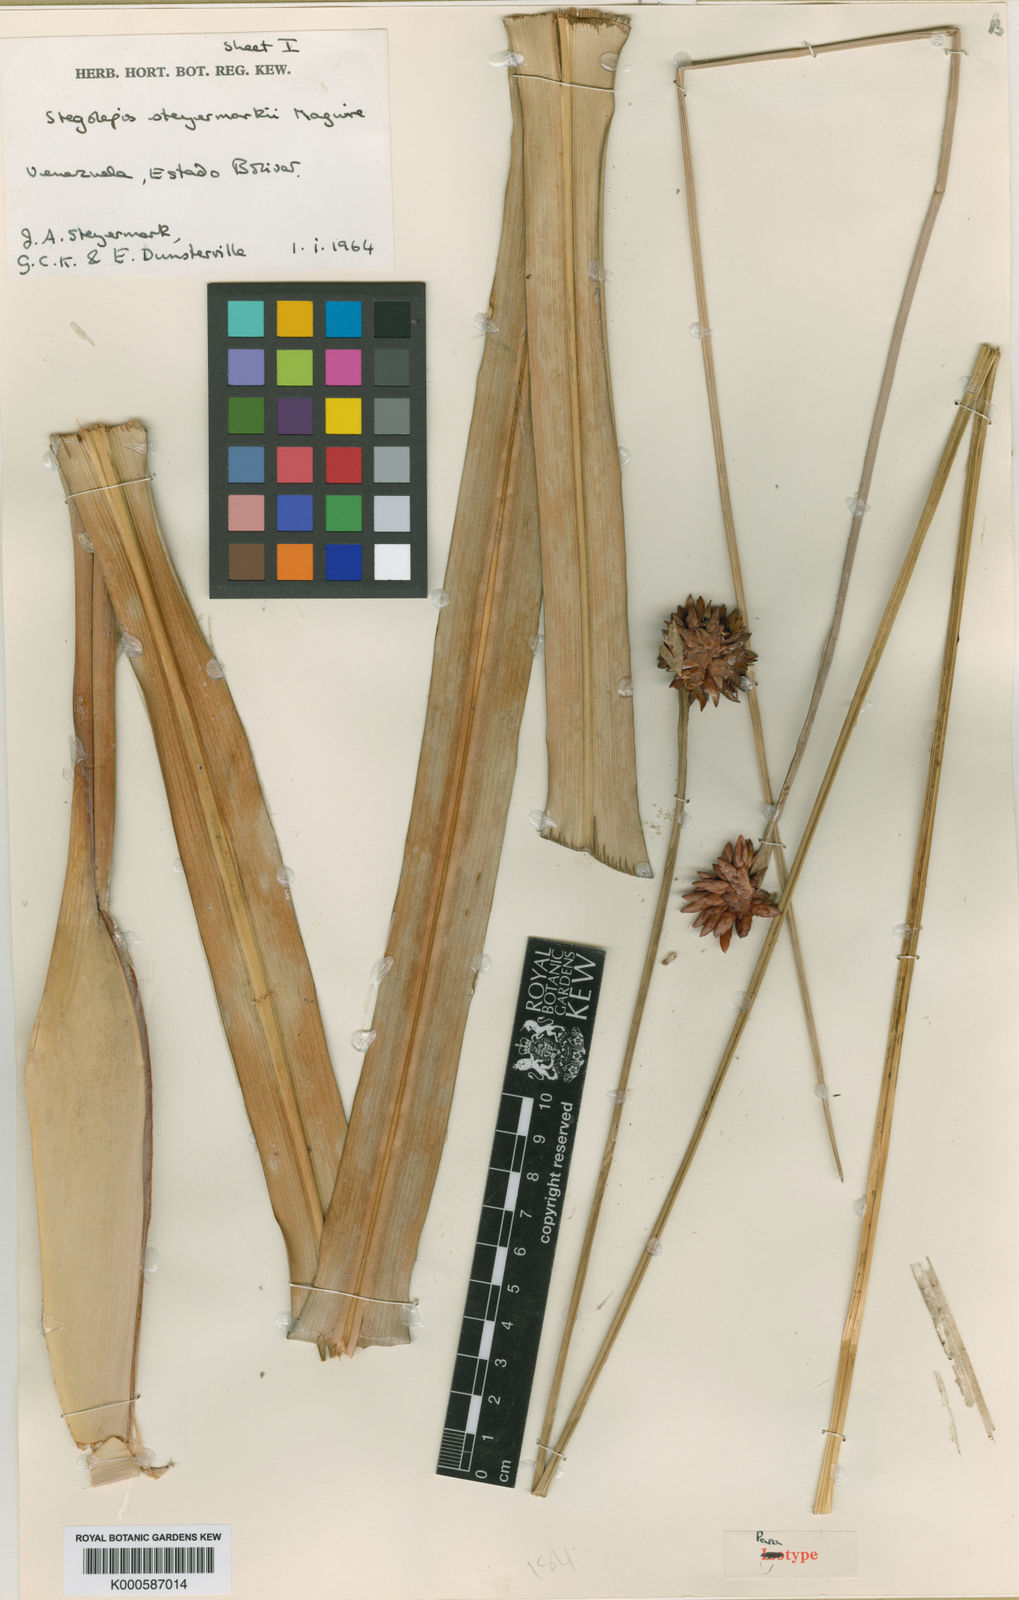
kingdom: Plantae
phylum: Tracheophyta
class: Liliopsida
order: Poales
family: Rapateaceae
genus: Stegolepis
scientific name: Stegolepis steyermarkii
